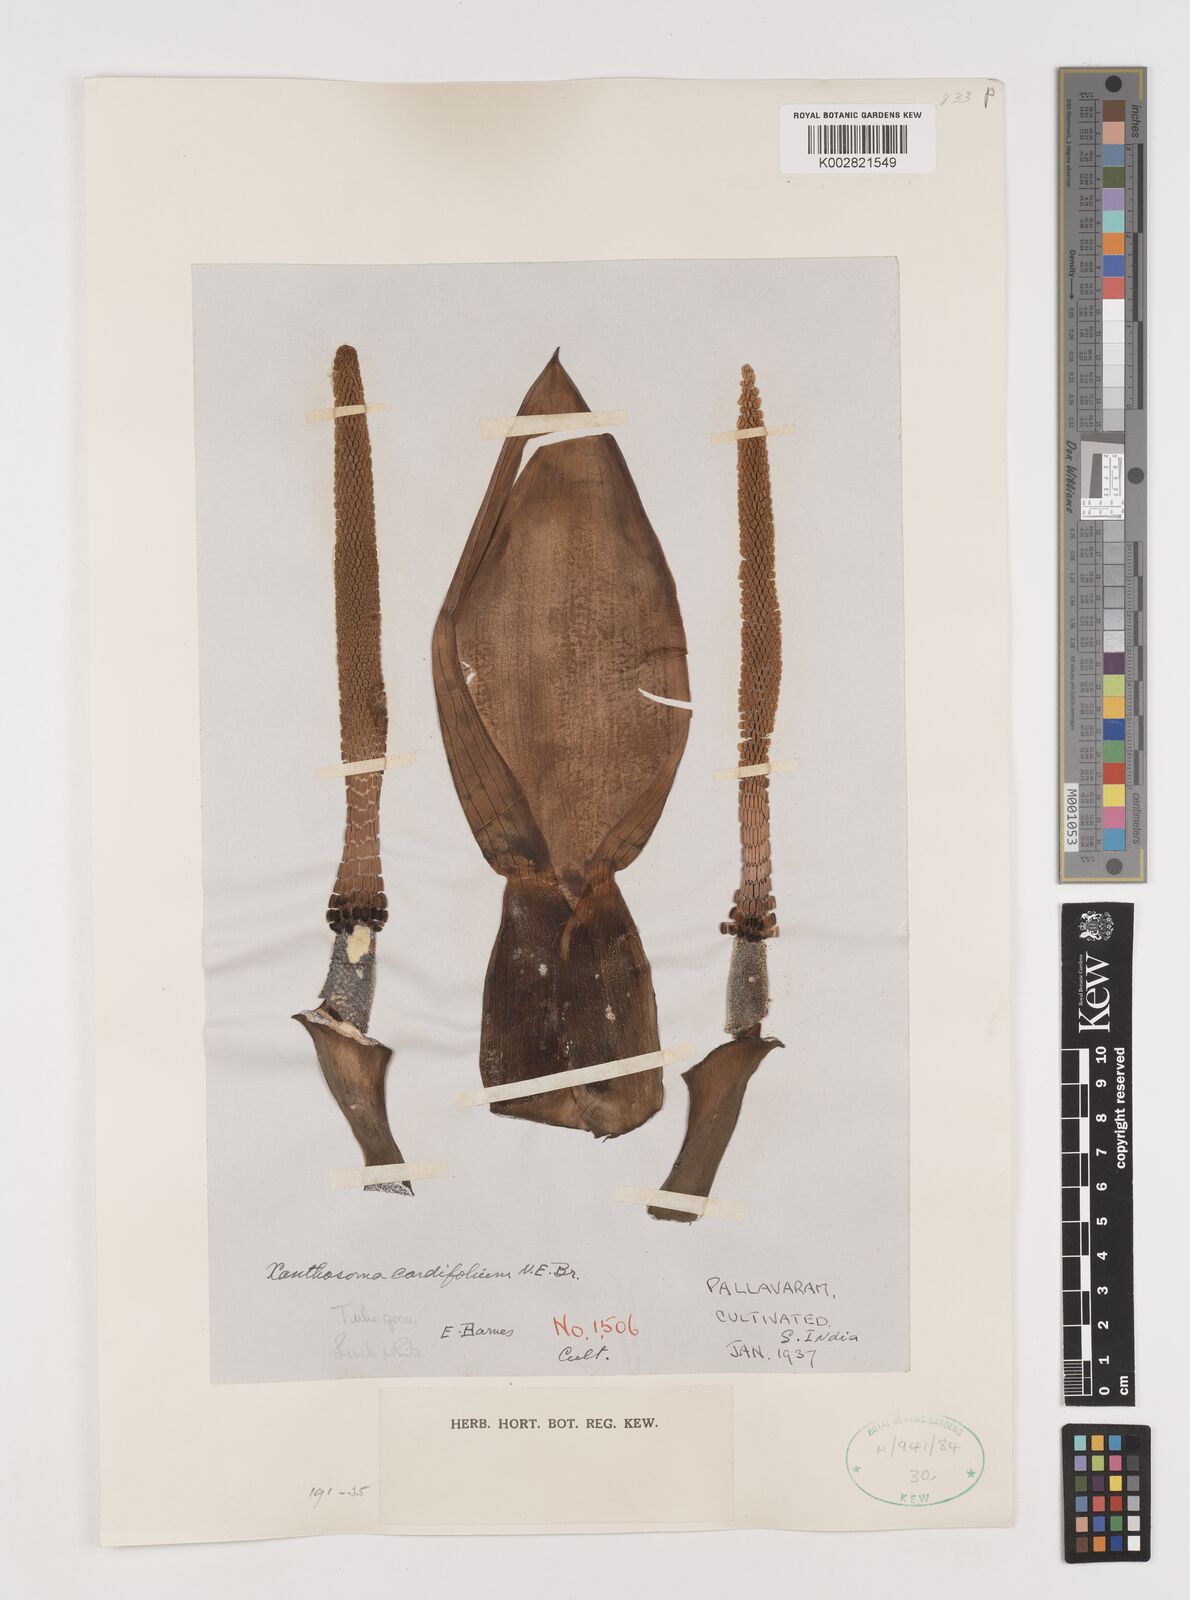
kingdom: Plantae
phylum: Tracheophyta
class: Liliopsida
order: Alismatales
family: Araceae
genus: Xanthosoma
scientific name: Xanthosoma cordifolium
